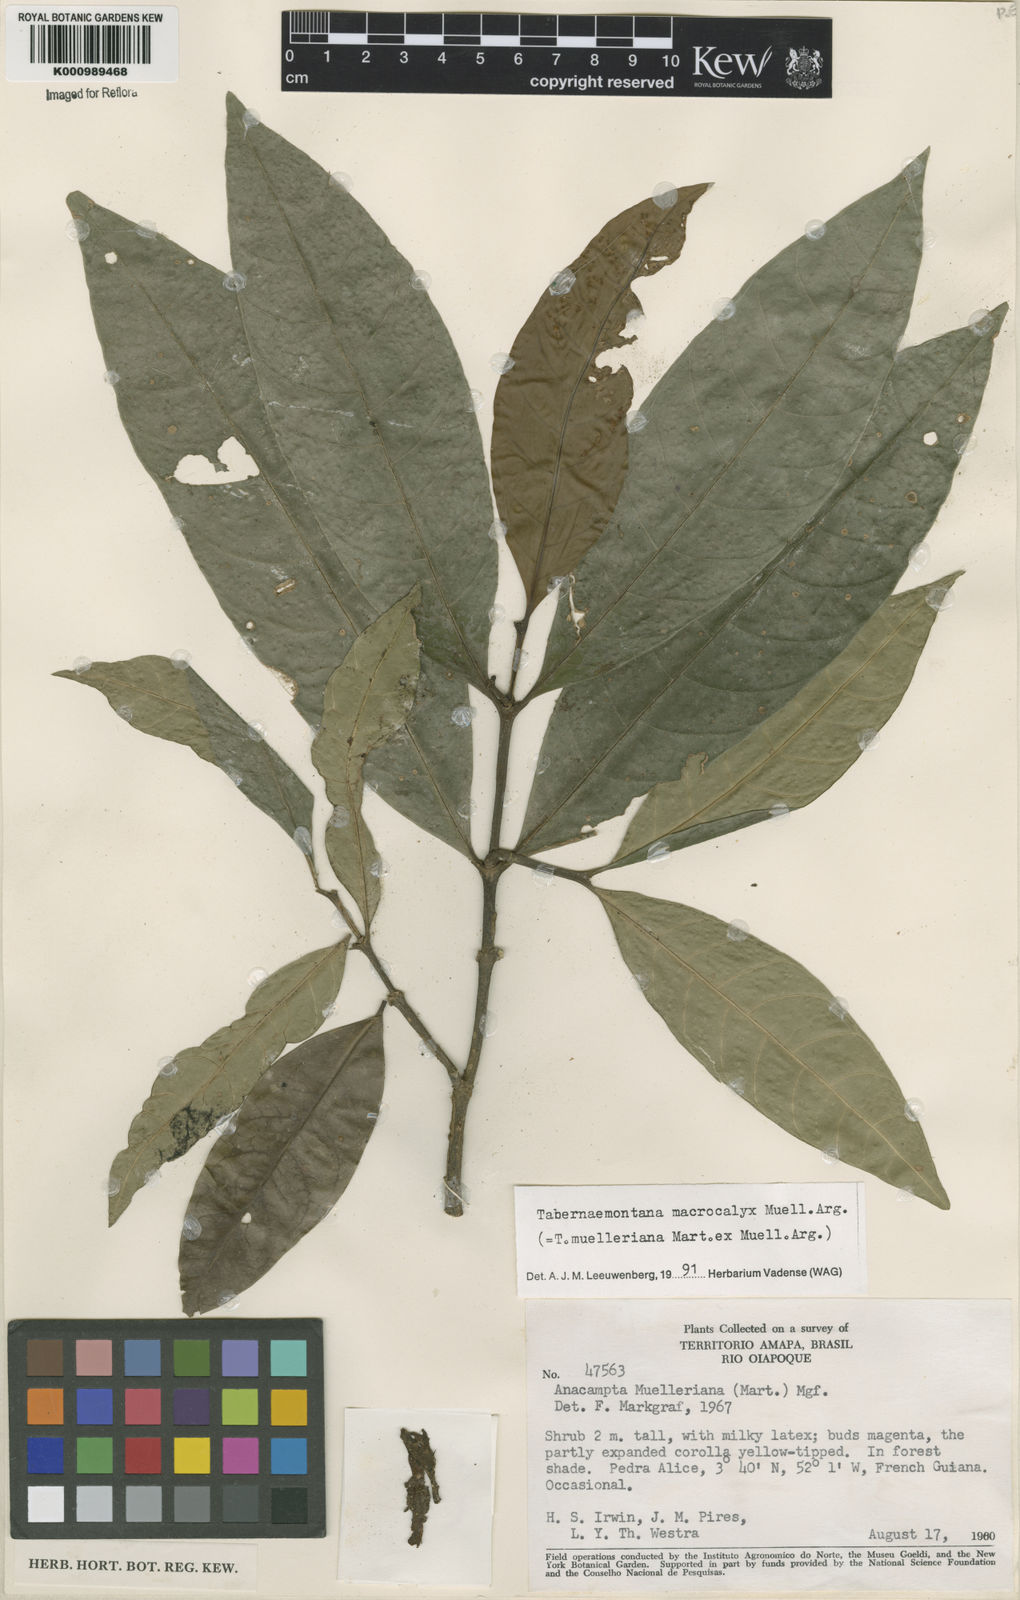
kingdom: Plantae
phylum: Tracheophyta
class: Magnoliopsida
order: Gentianales
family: Apocynaceae
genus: Tabernaemontana
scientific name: Tabernaemontana
